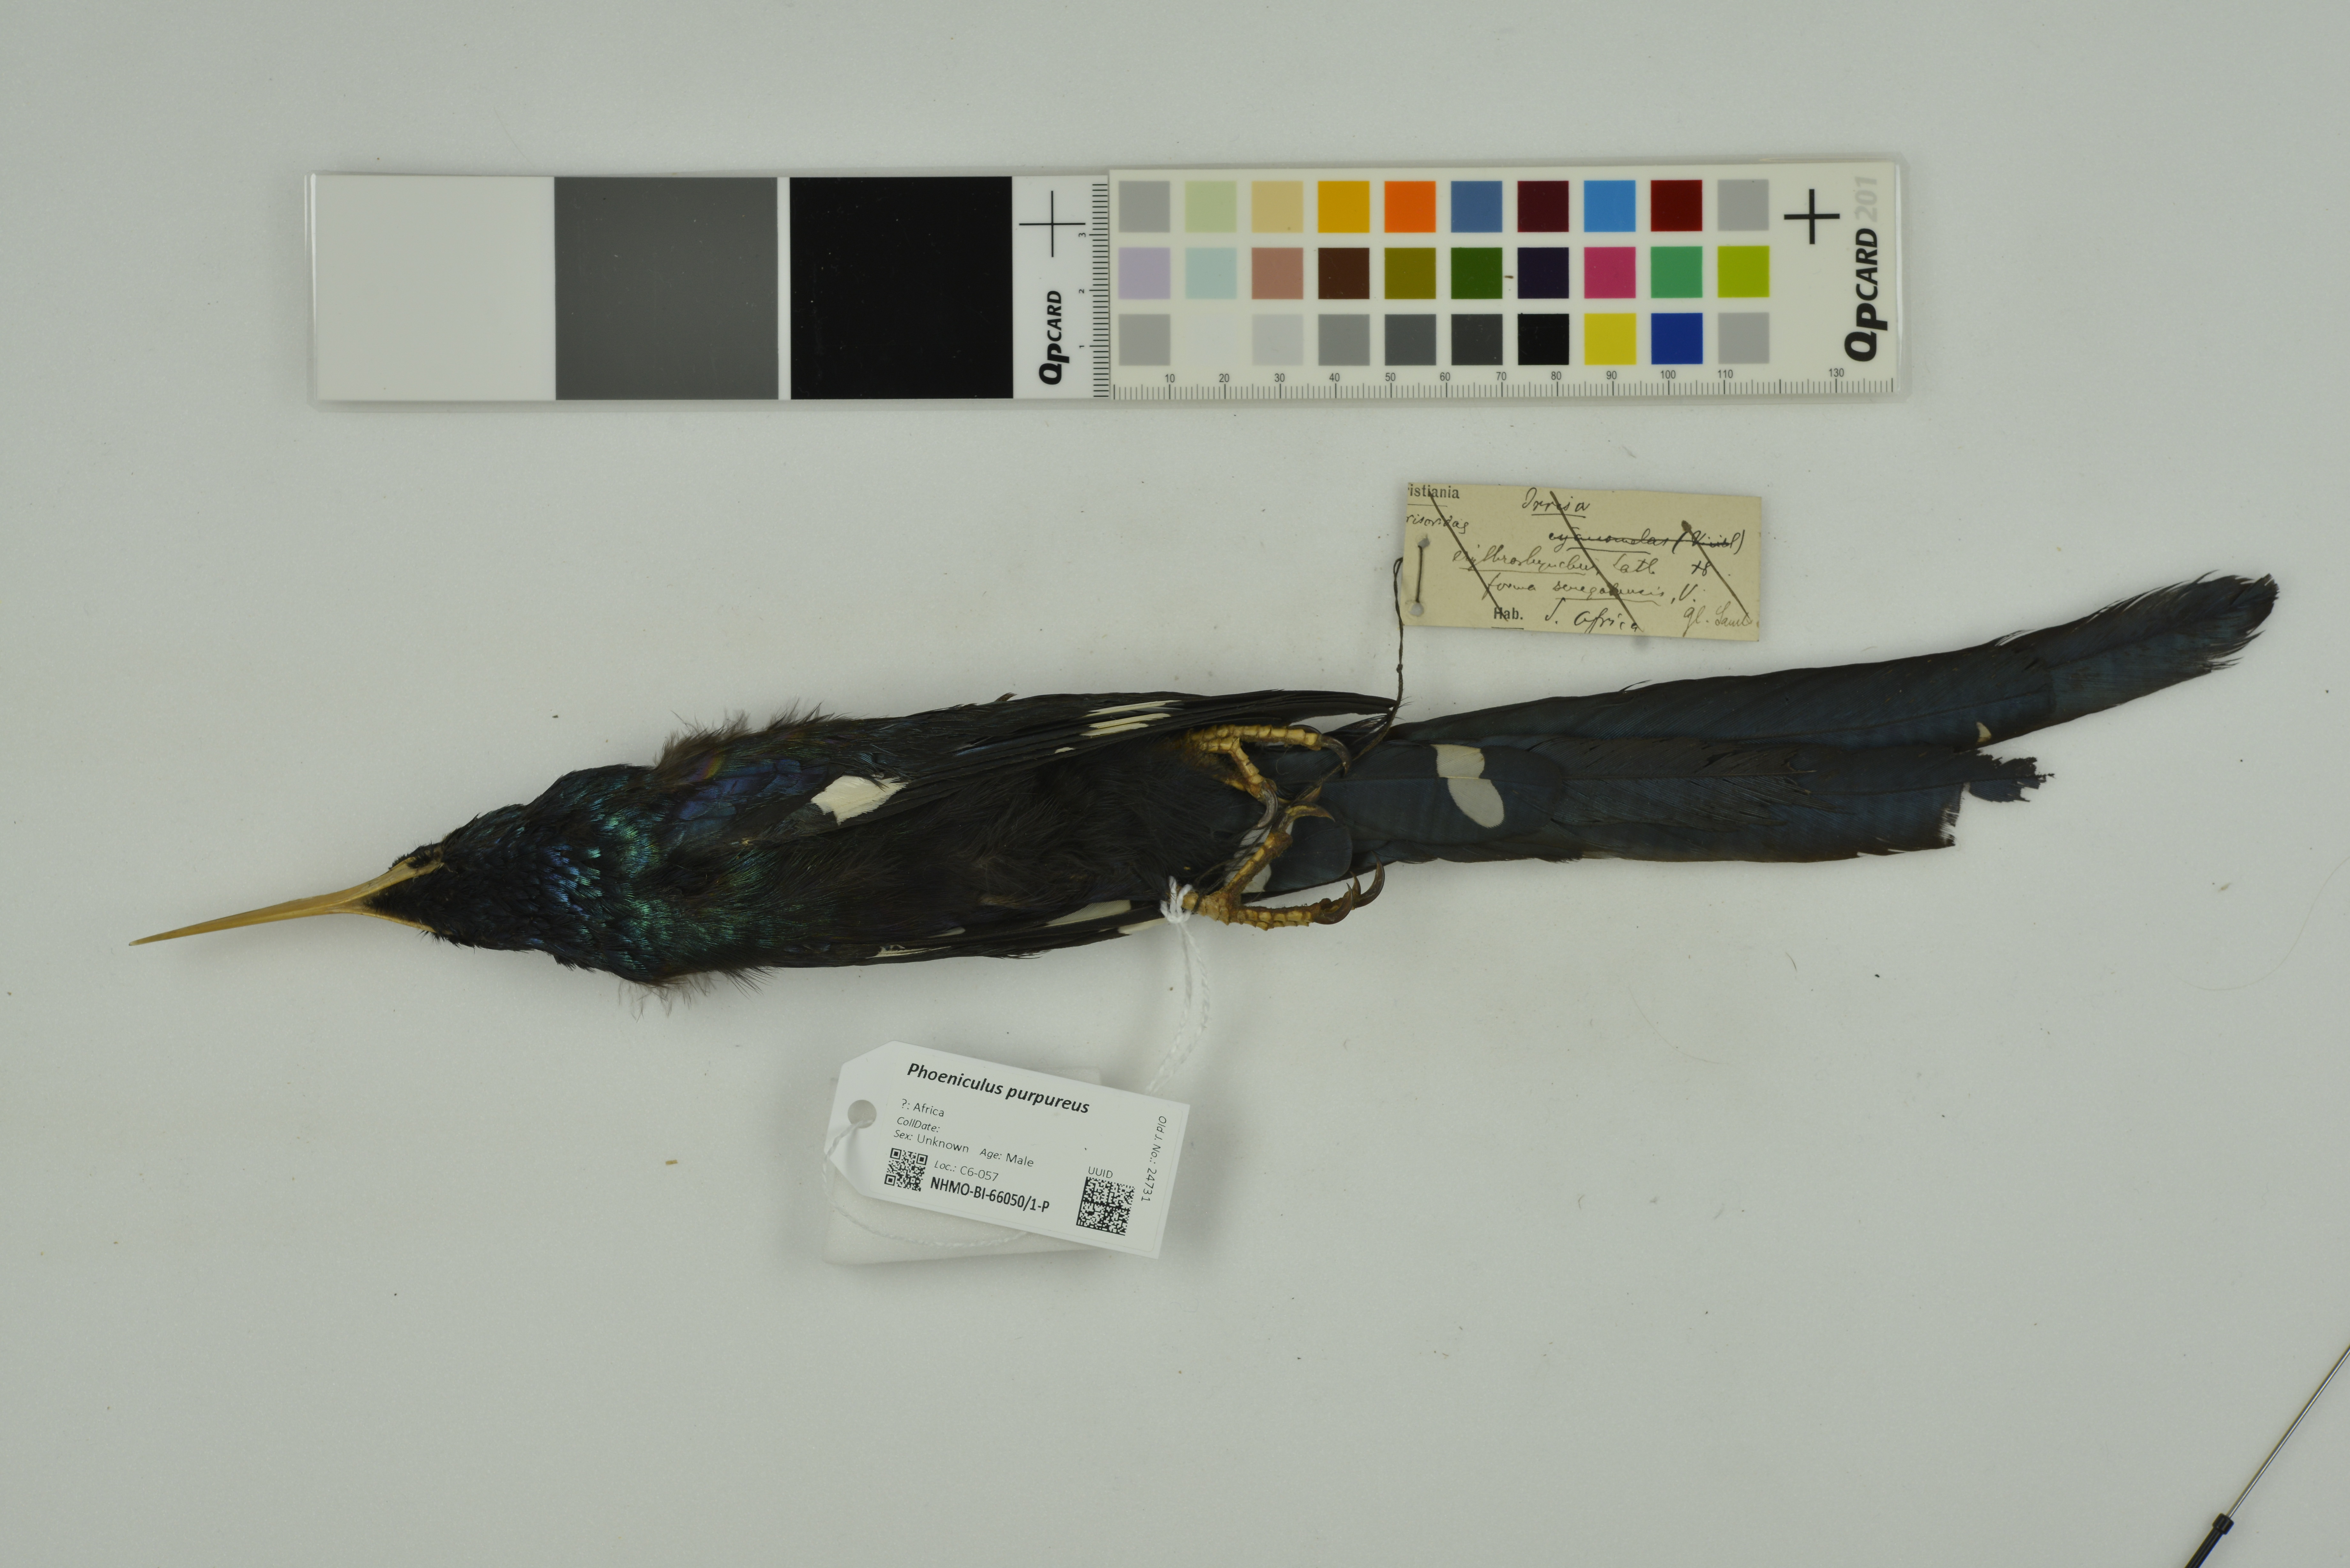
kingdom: Animalia
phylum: Chordata
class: Aves
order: Bucerotiformes
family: Phoeniculidae
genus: Phoeniculus
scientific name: Phoeniculus purpureus
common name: Green woodhoopoe
